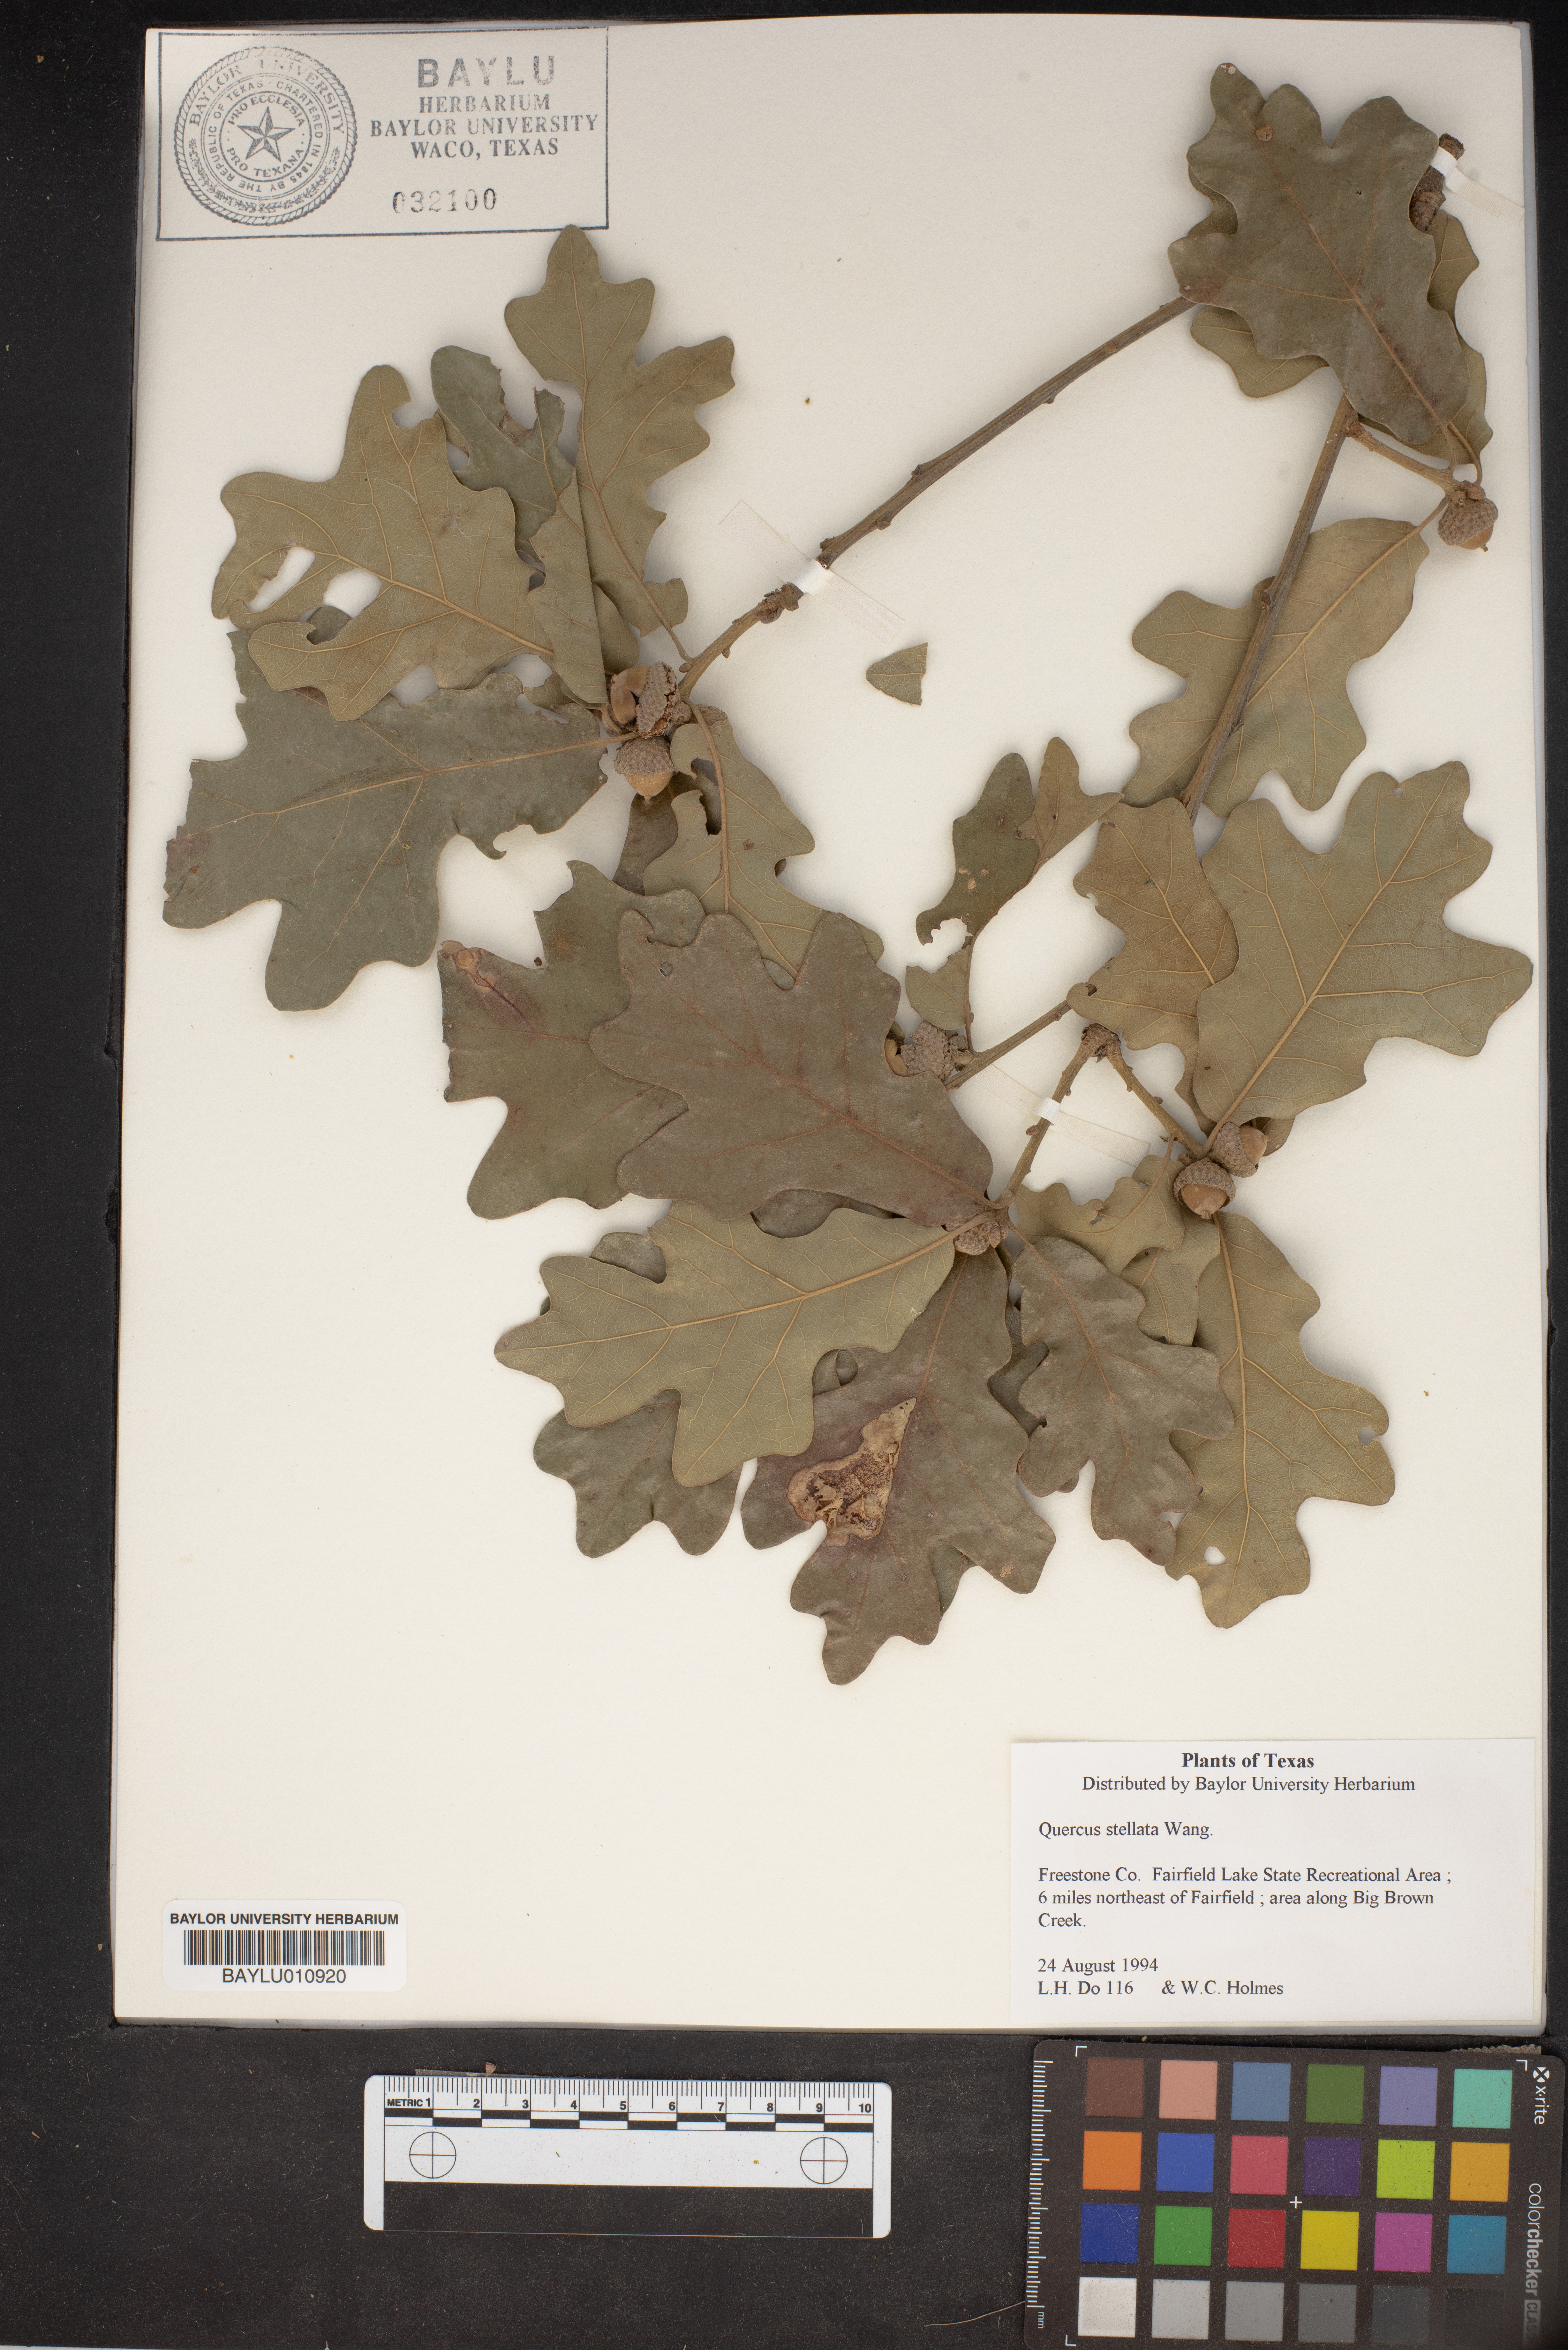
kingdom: Plantae
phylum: Tracheophyta
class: Magnoliopsida
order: Fagales
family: Fagaceae
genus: Quercus
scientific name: Quercus stellata
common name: Post oak
